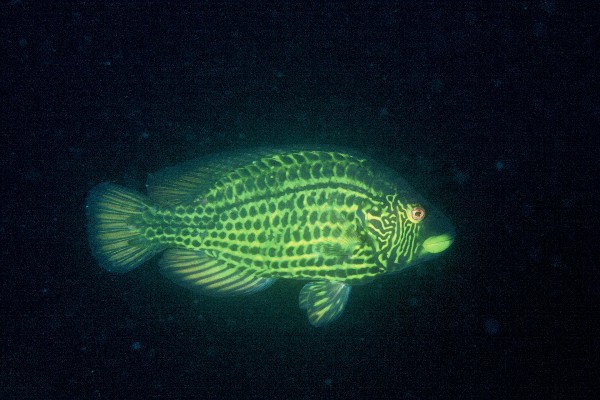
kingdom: Animalia
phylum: Chordata
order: Perciformes
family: Labridae
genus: Pteragogus
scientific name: Pteragogus aurigarius
